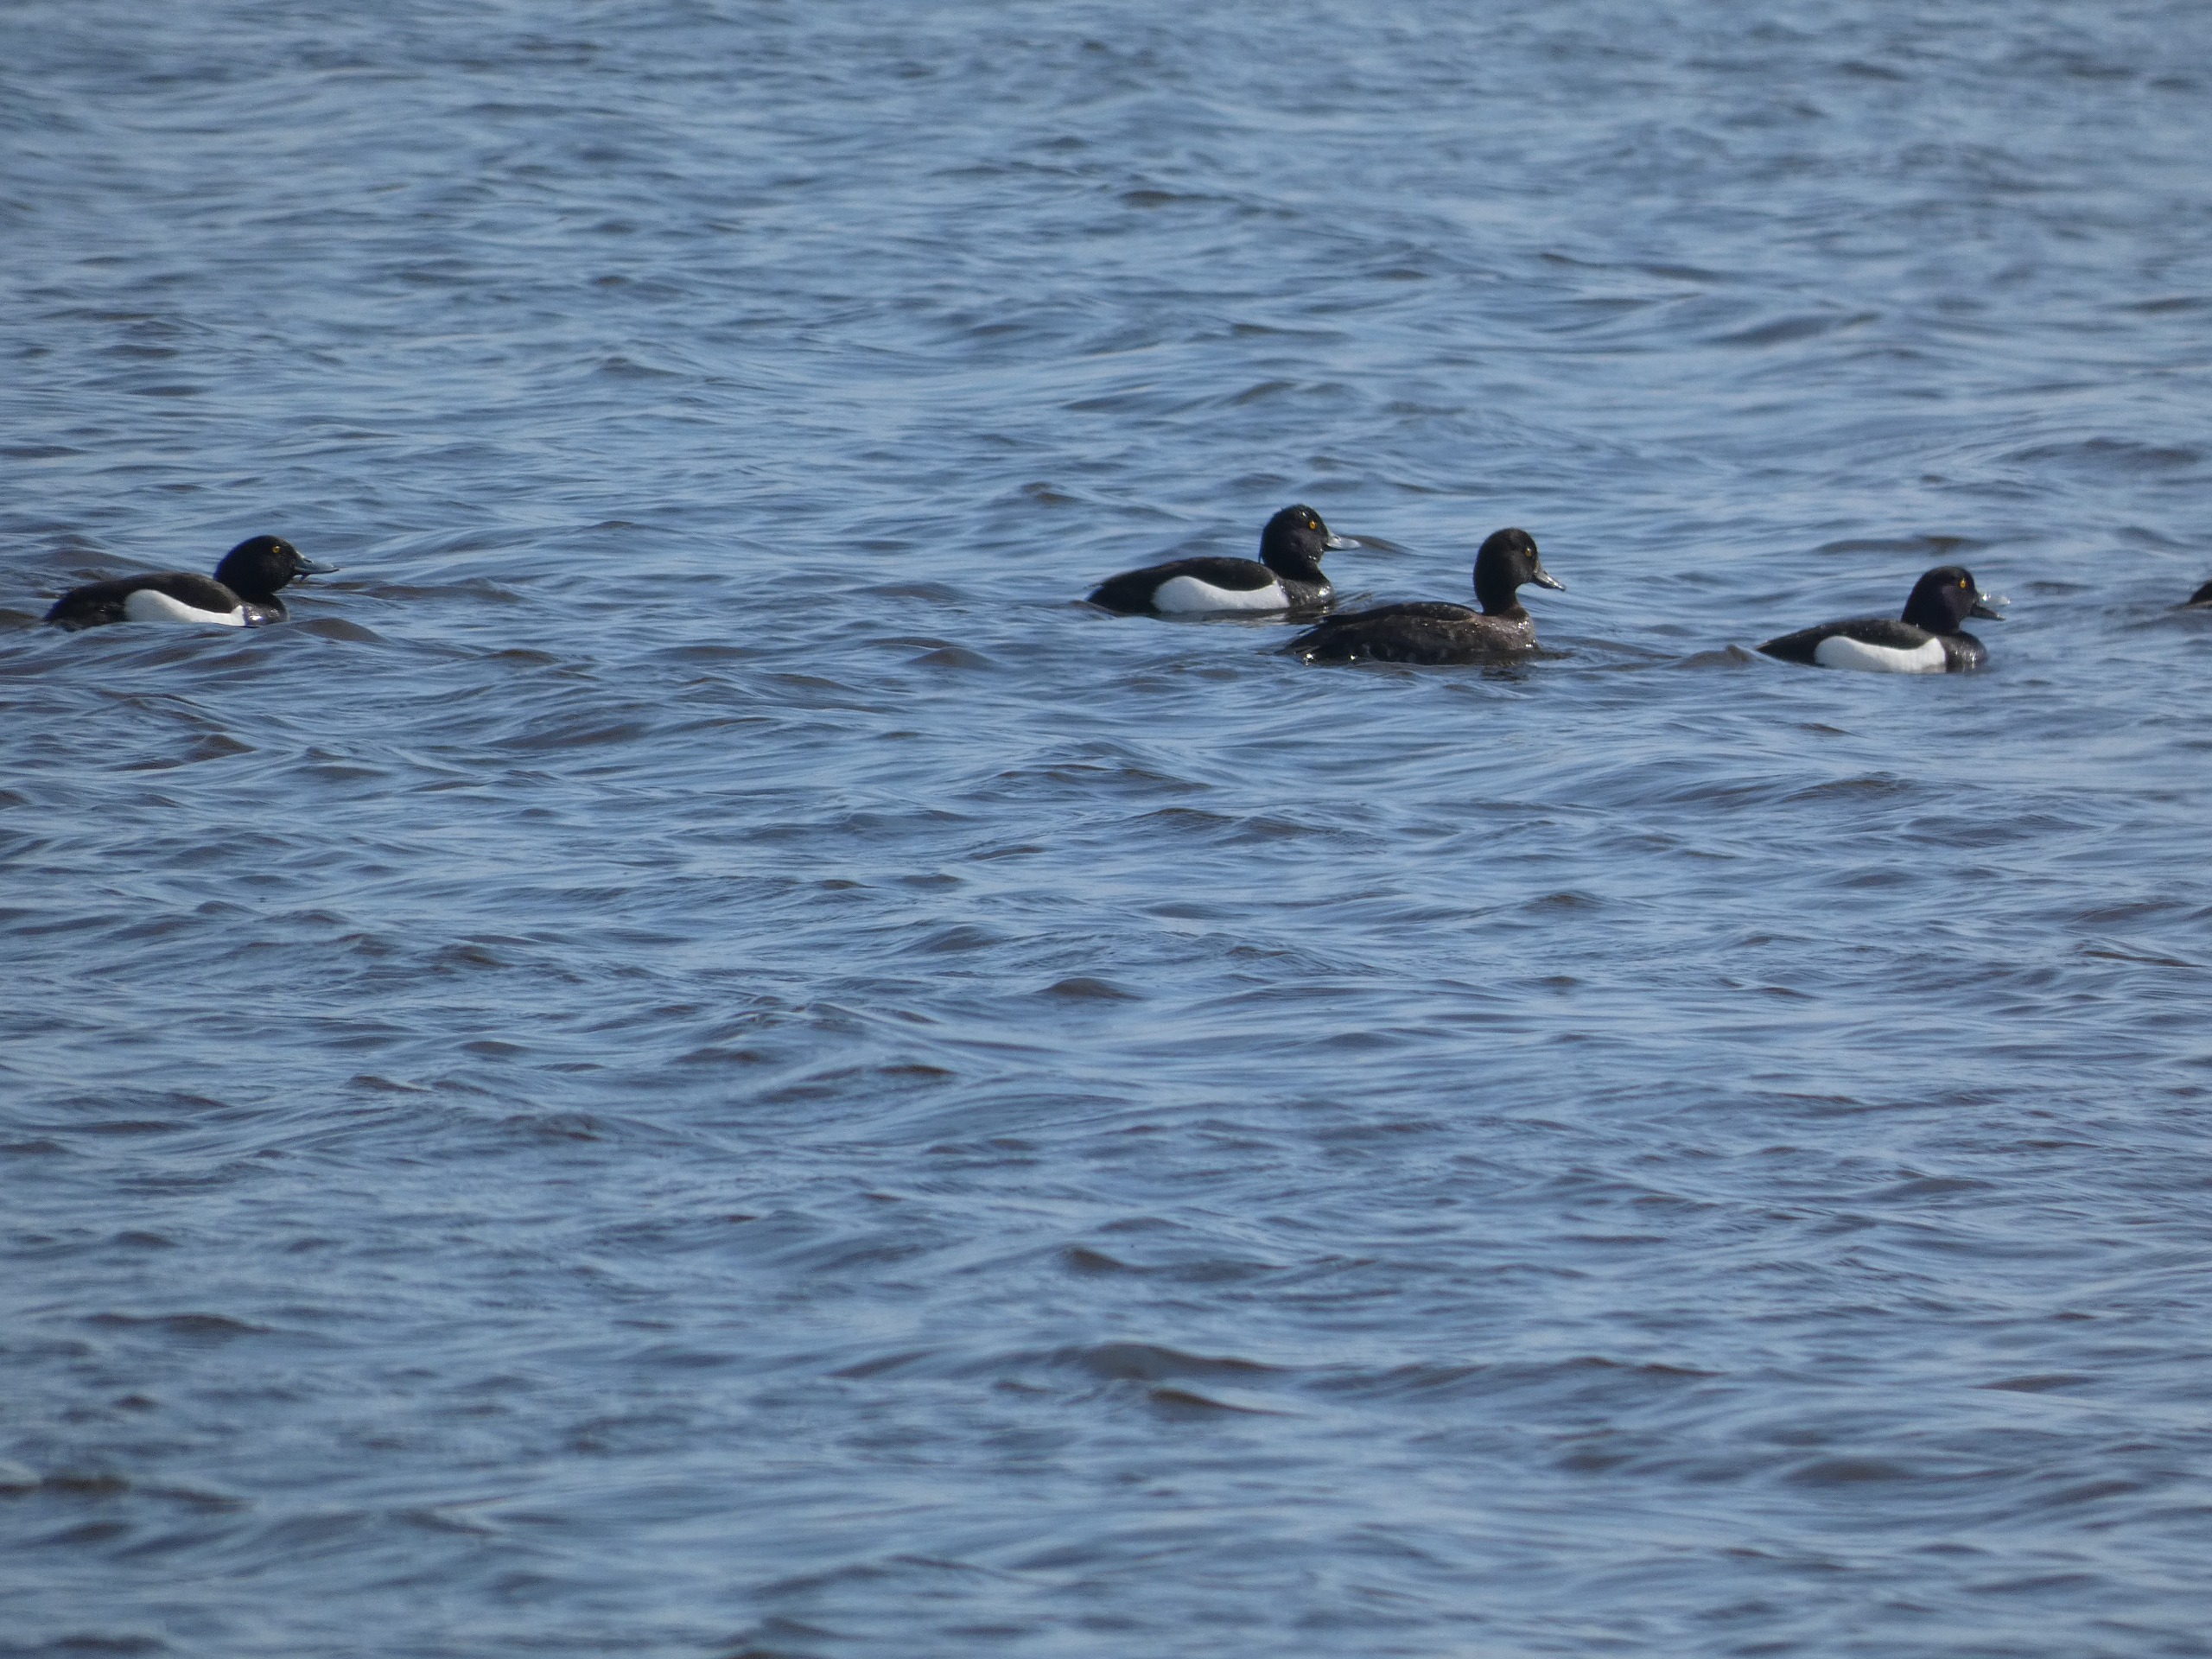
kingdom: Animalia
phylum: Chordata
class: Aves
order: Anseriformes
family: Anatidae
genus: Aythya
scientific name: Aythya fuligula
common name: Troldand
